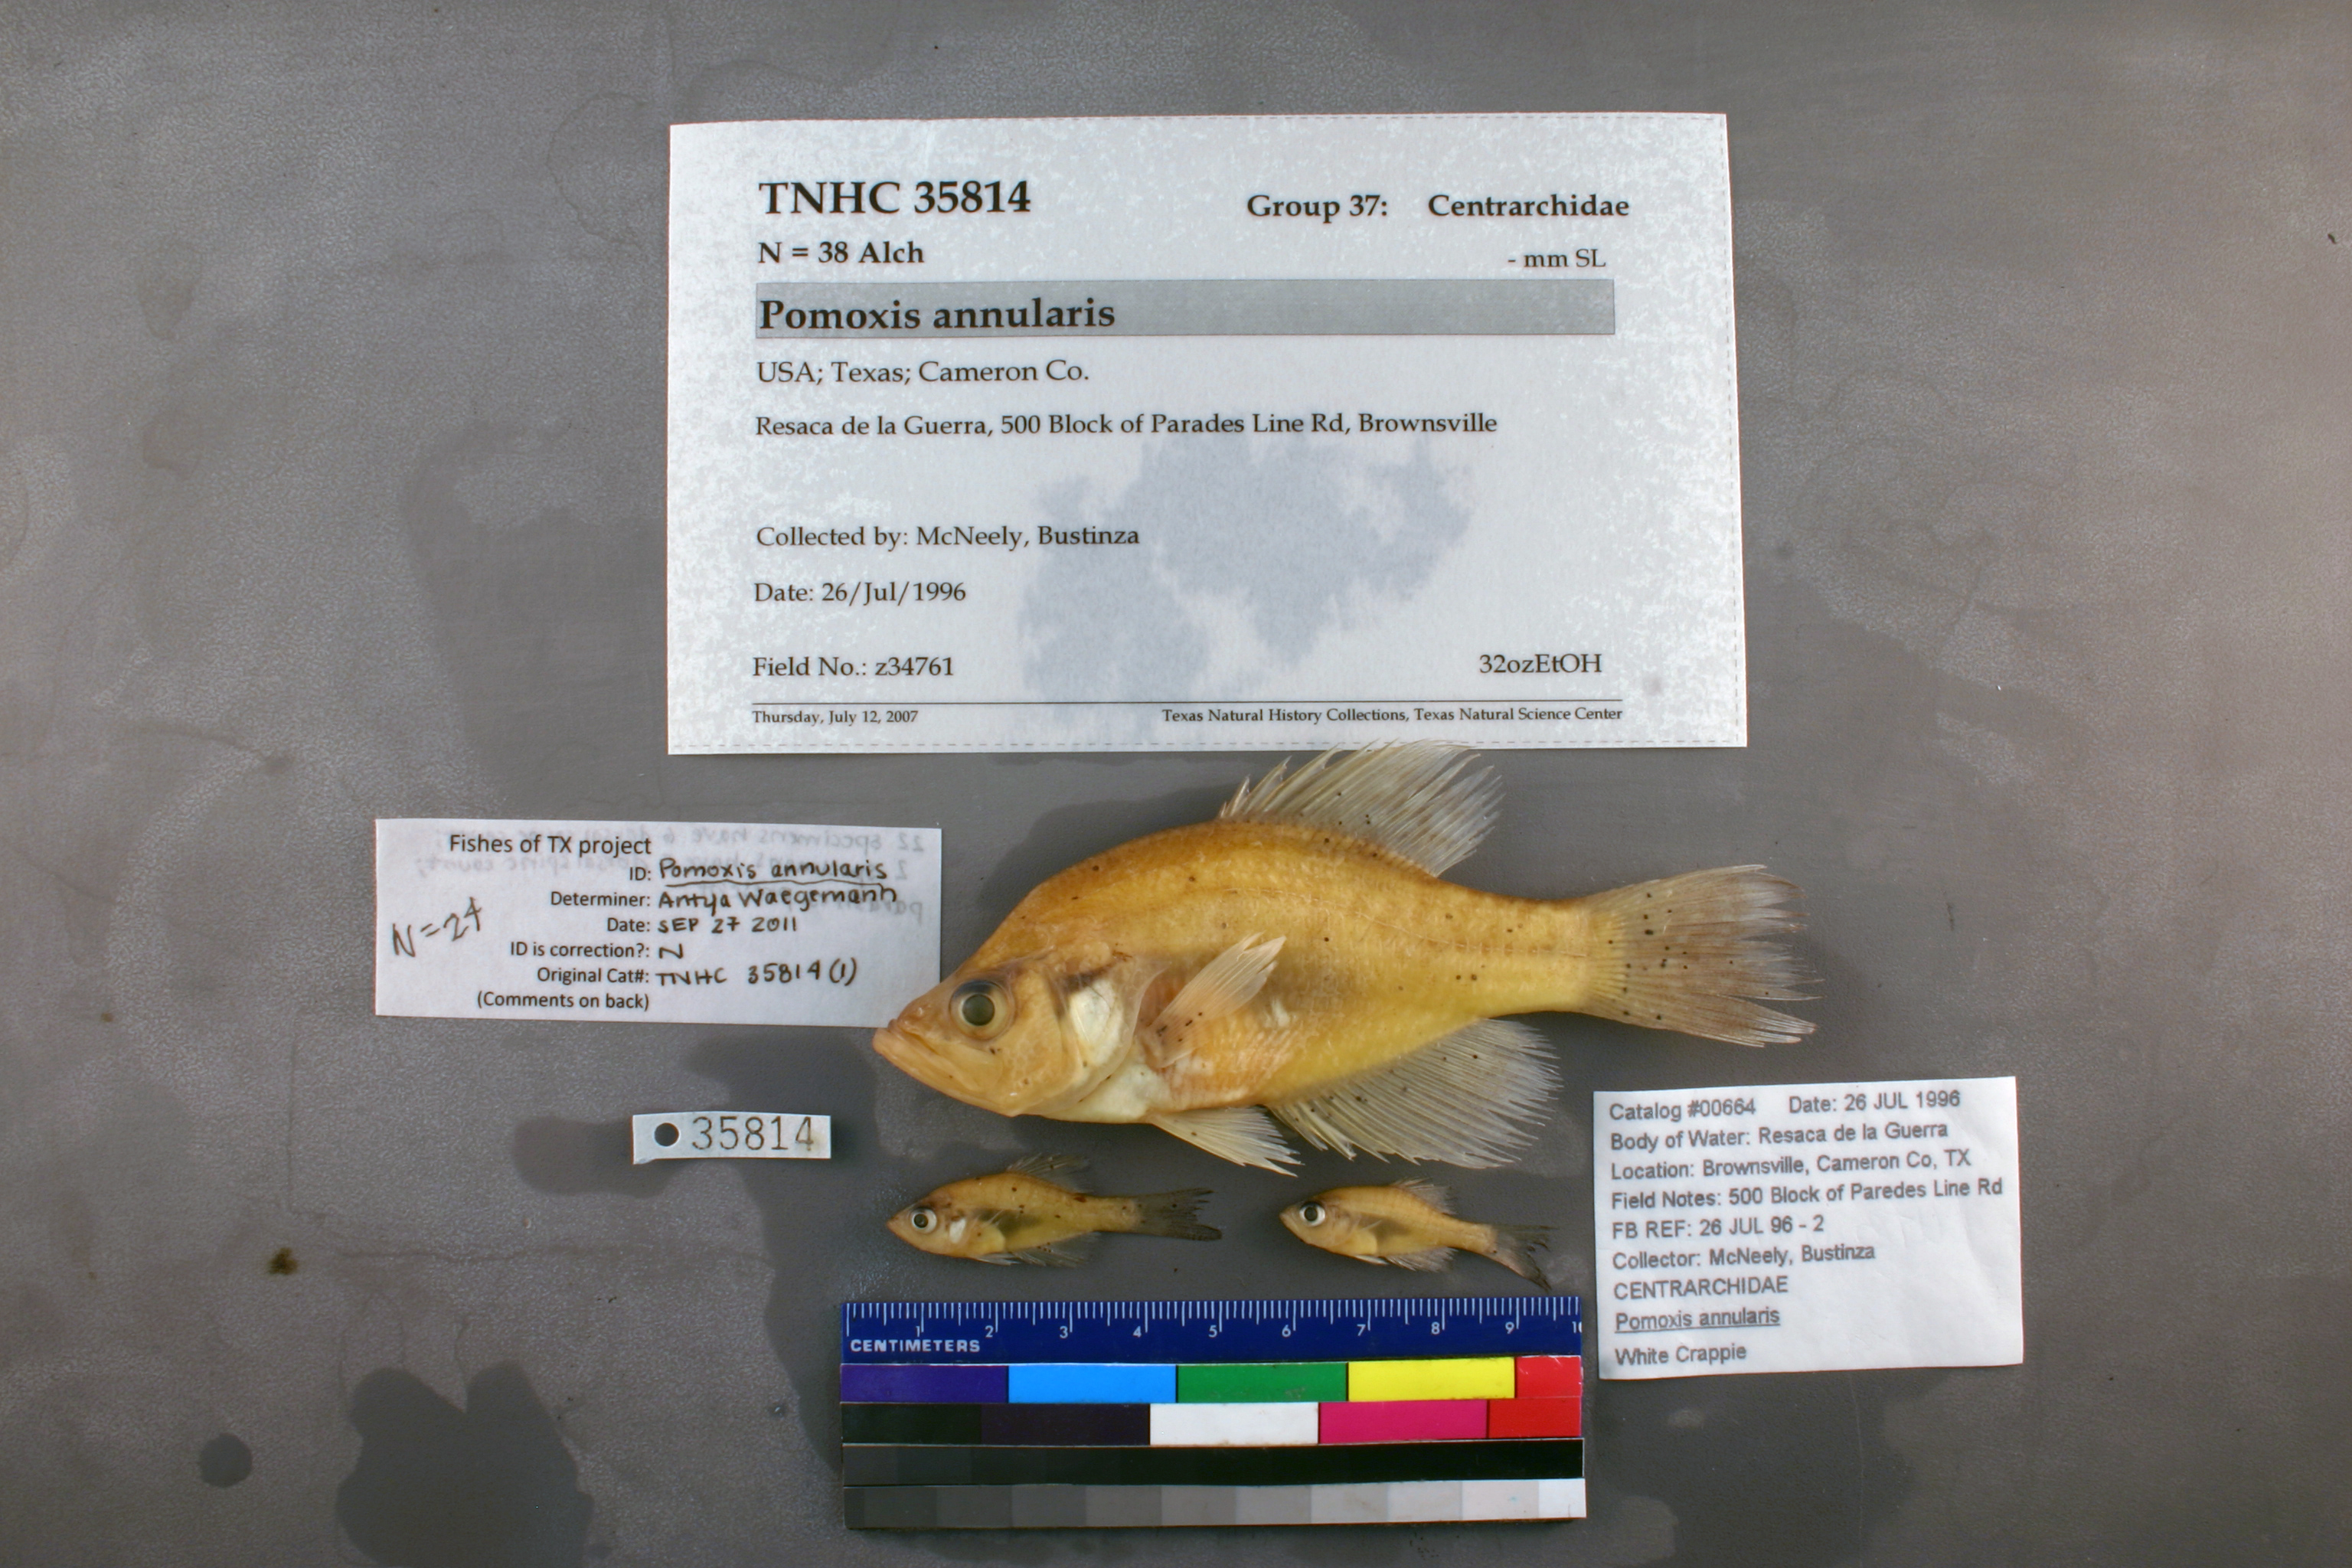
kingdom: Animalia
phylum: Chordata
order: Perciformes
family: Centrarchidae
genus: Pomoxis
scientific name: Pomoxis annularis
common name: White crappie
